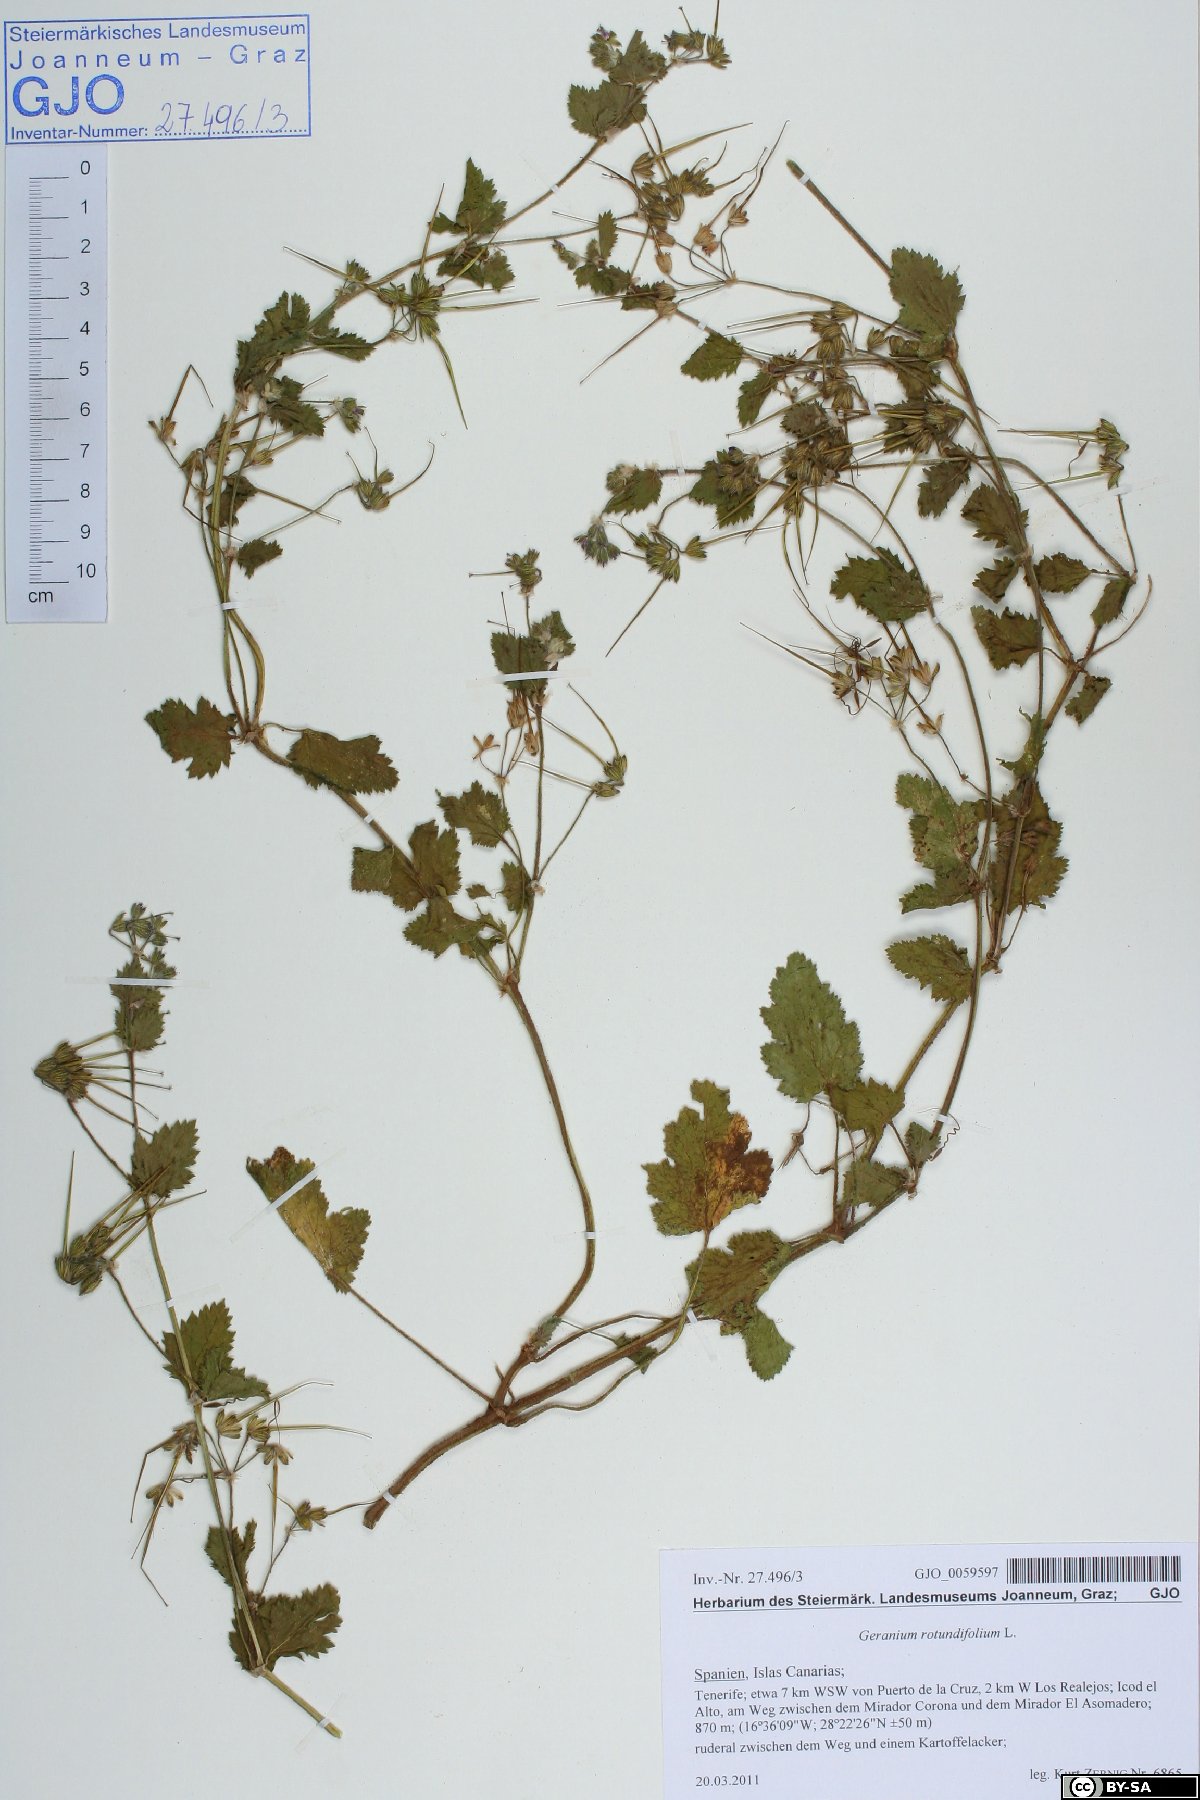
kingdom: Plantae
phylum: Tracheophyta
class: Magnoliopsida
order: Geraniales
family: Geraniaceae
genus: Erodium
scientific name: Erodium chium
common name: Three-lobed stork's-bill
